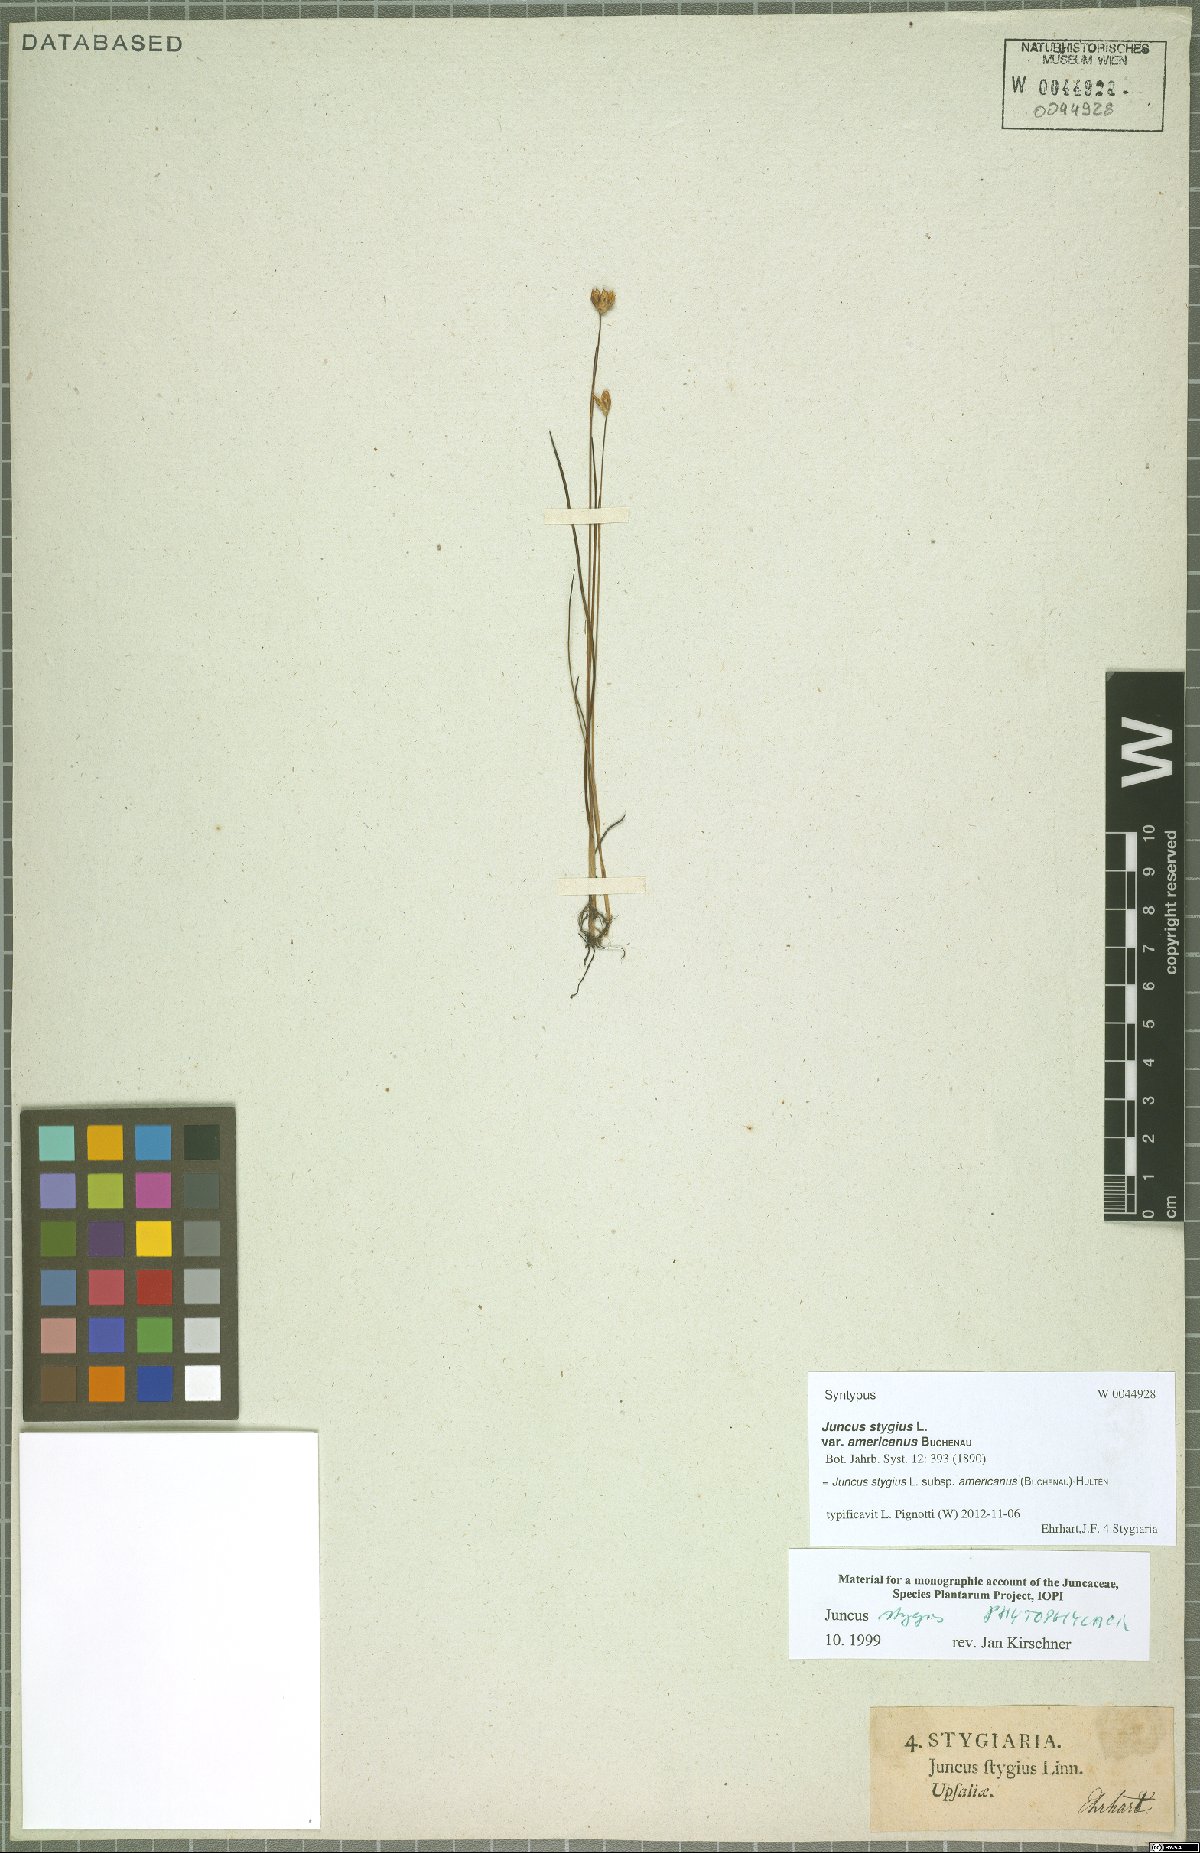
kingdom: Plantae
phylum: Tracheophyta
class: Liliopsida
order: Poales
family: Juncaceae
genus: Juncus
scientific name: Juncus stygius
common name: Bog rush
